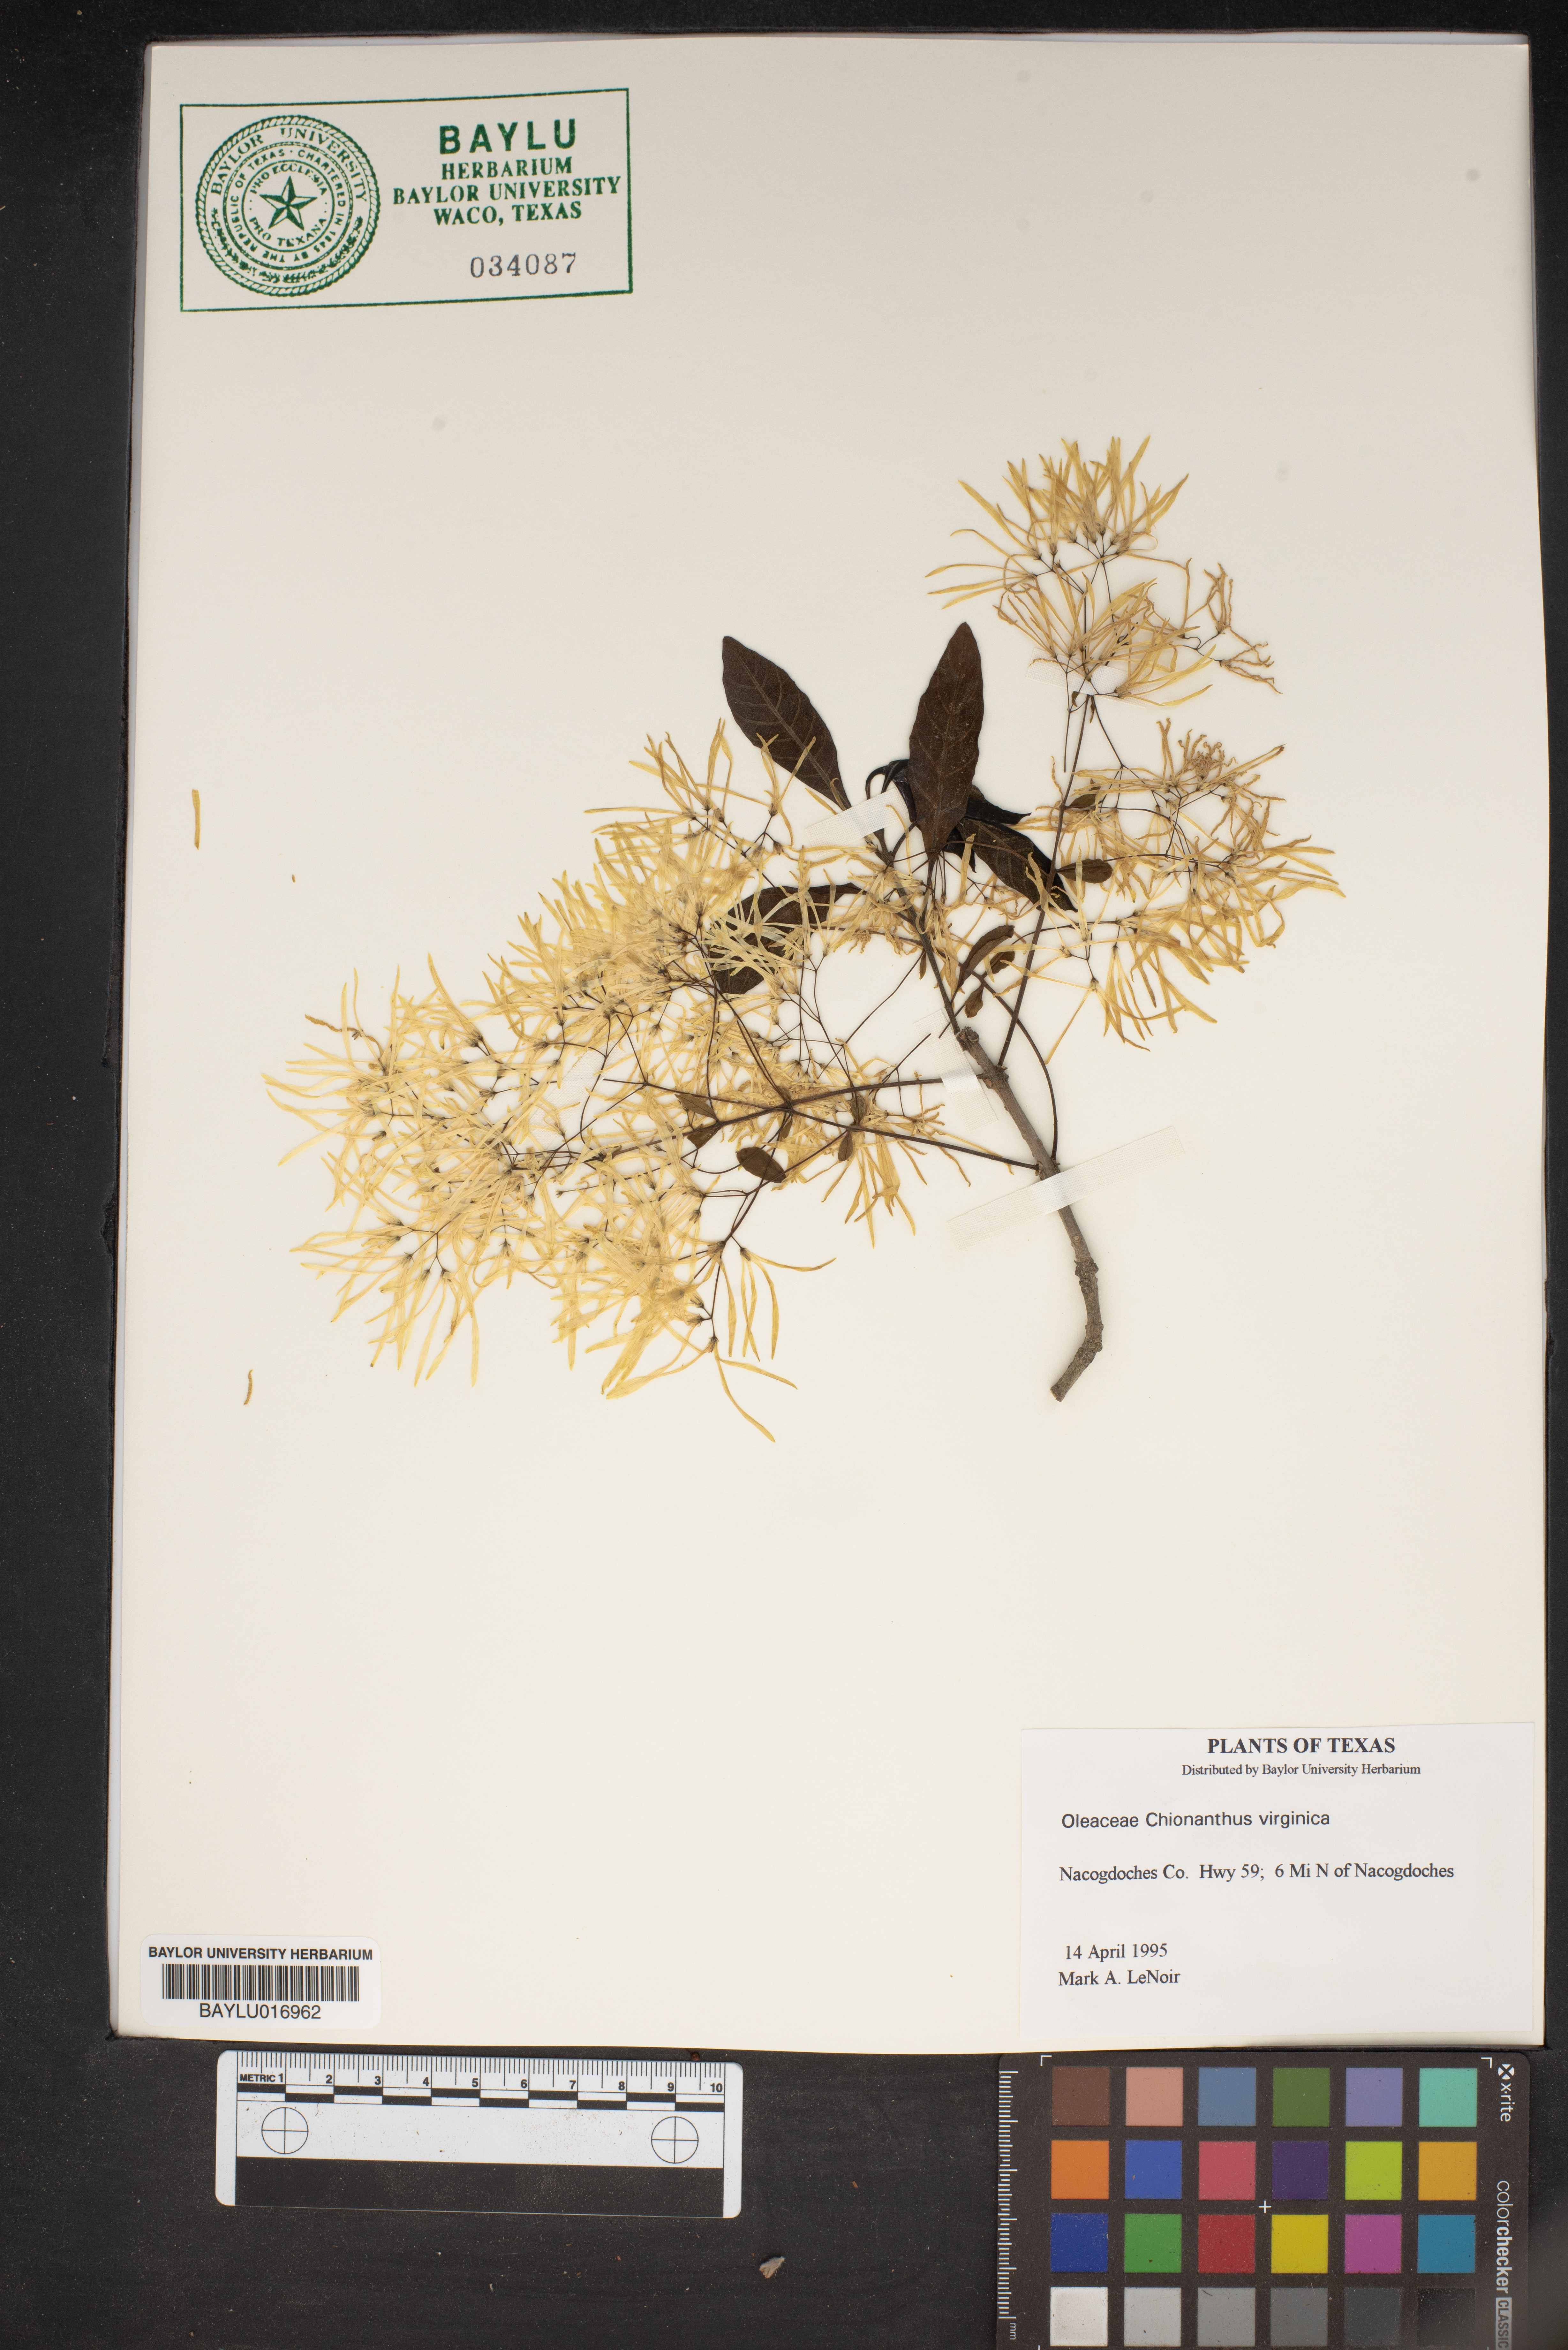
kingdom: Plantae
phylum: Tracheophyta
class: Magnoliopsida
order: Lamiales
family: Oleaceae
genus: Chionanthus
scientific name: Chionanthus virginicus
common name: American fringetree
